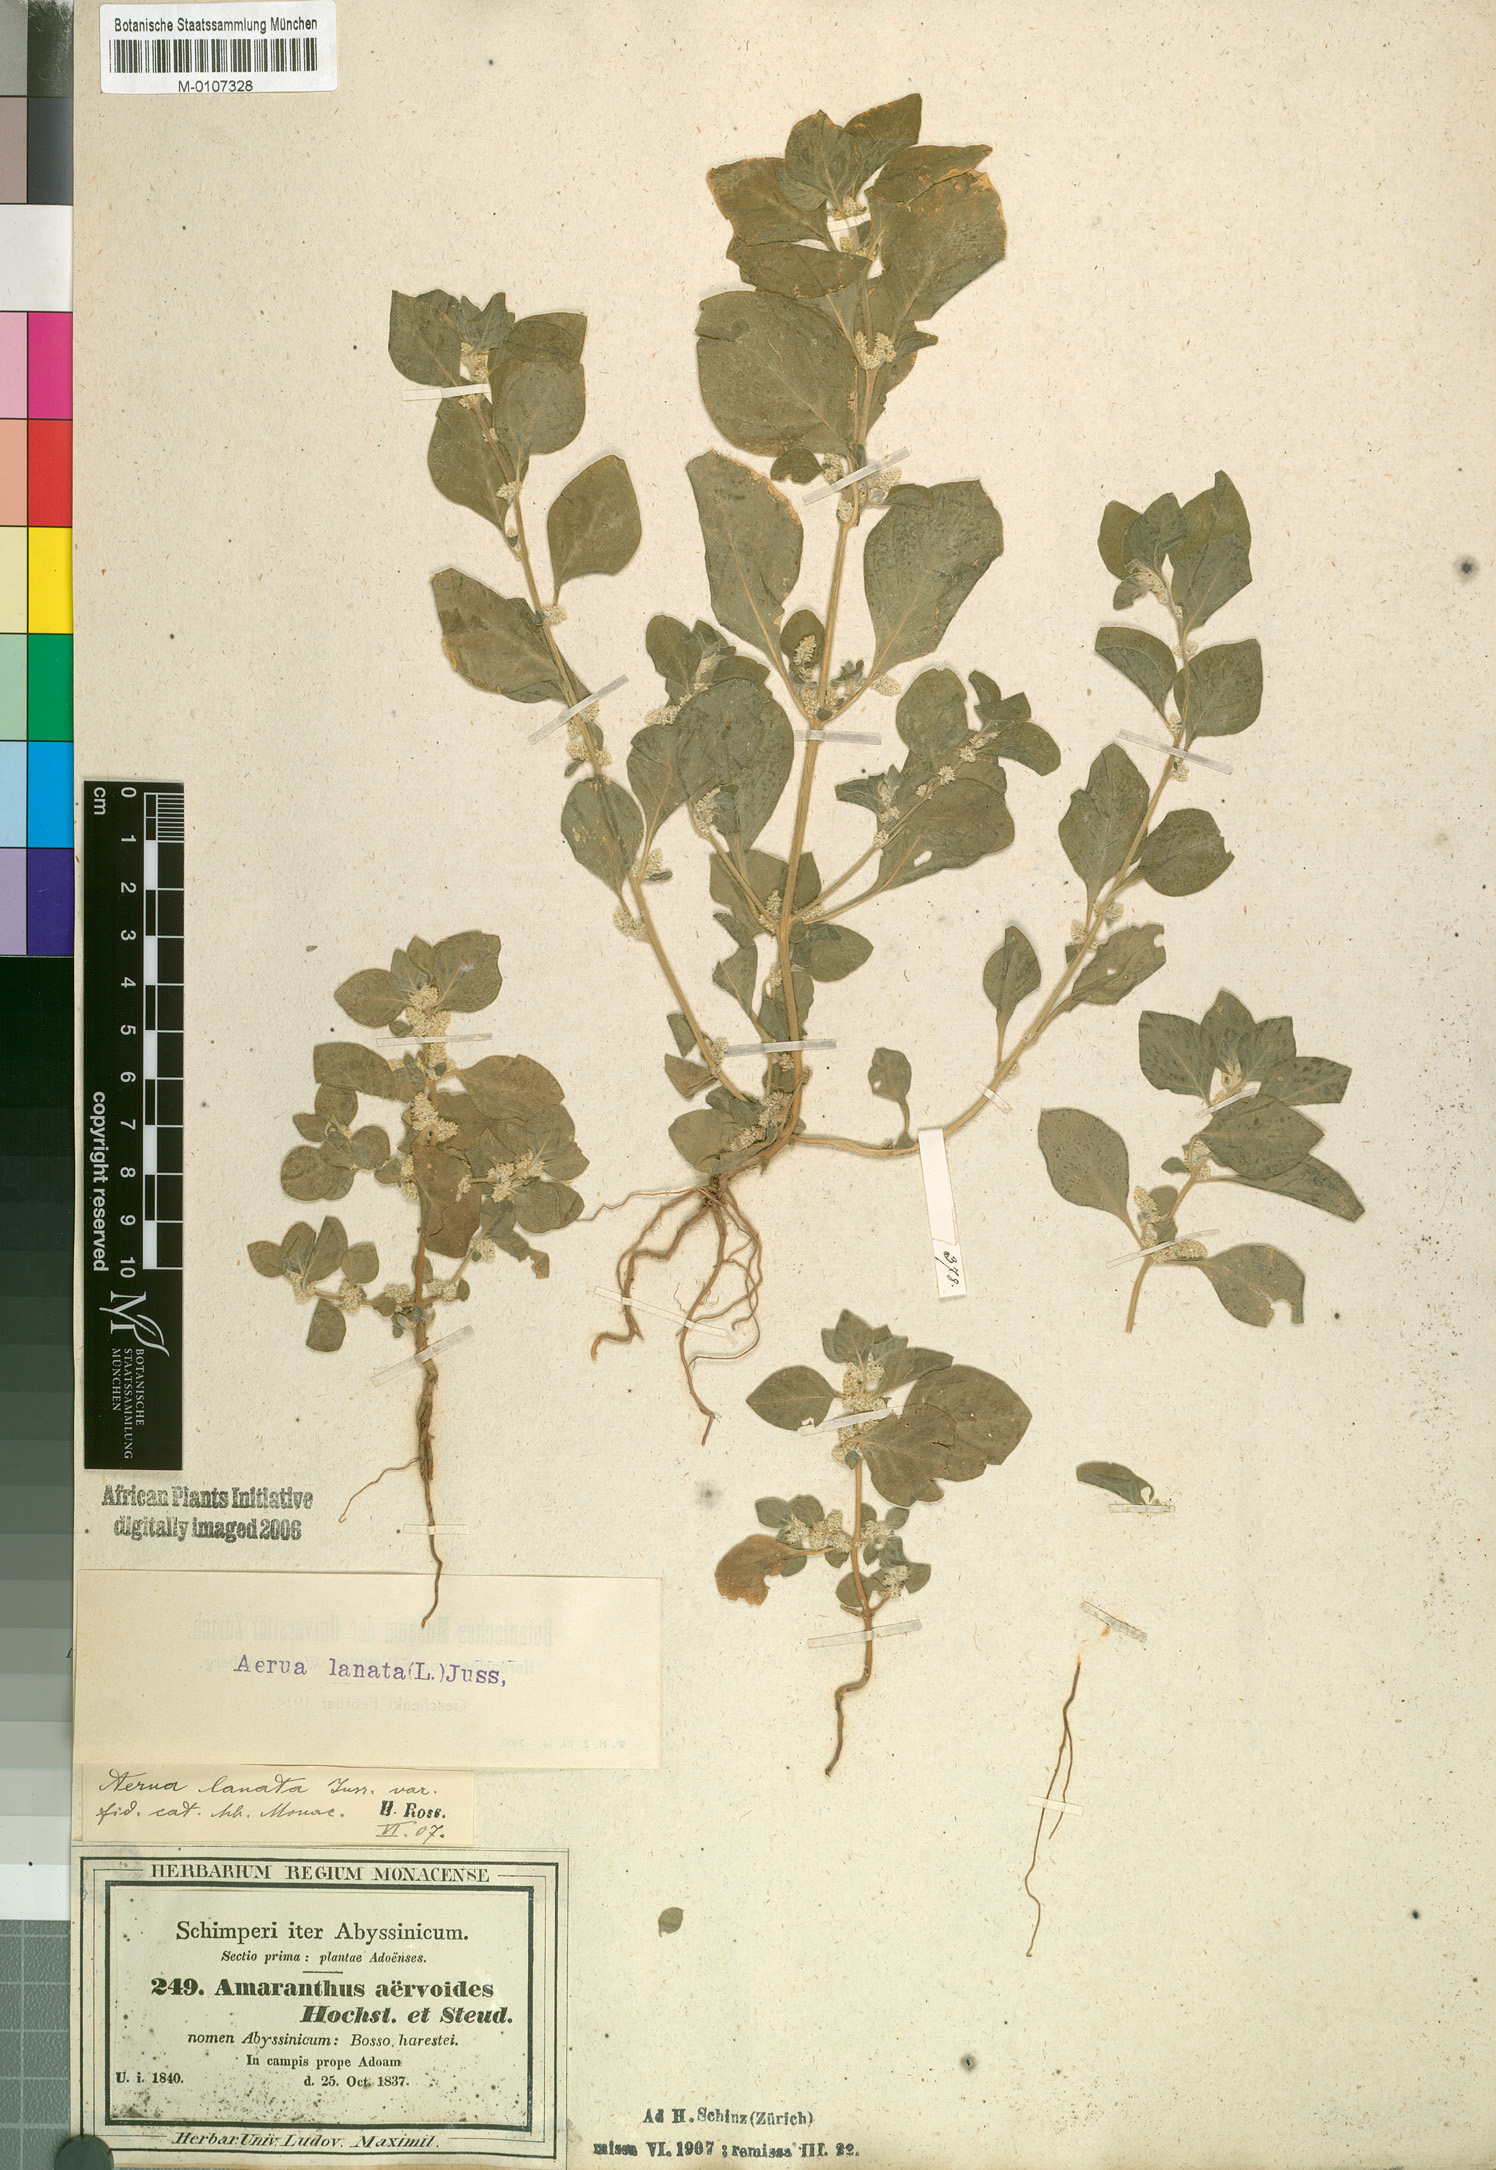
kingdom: Plantae
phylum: Tracheophyta
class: Magnoliopsida
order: Caryophyllales
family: Amaranthaceae
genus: Ouret
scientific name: Ouret lanata
